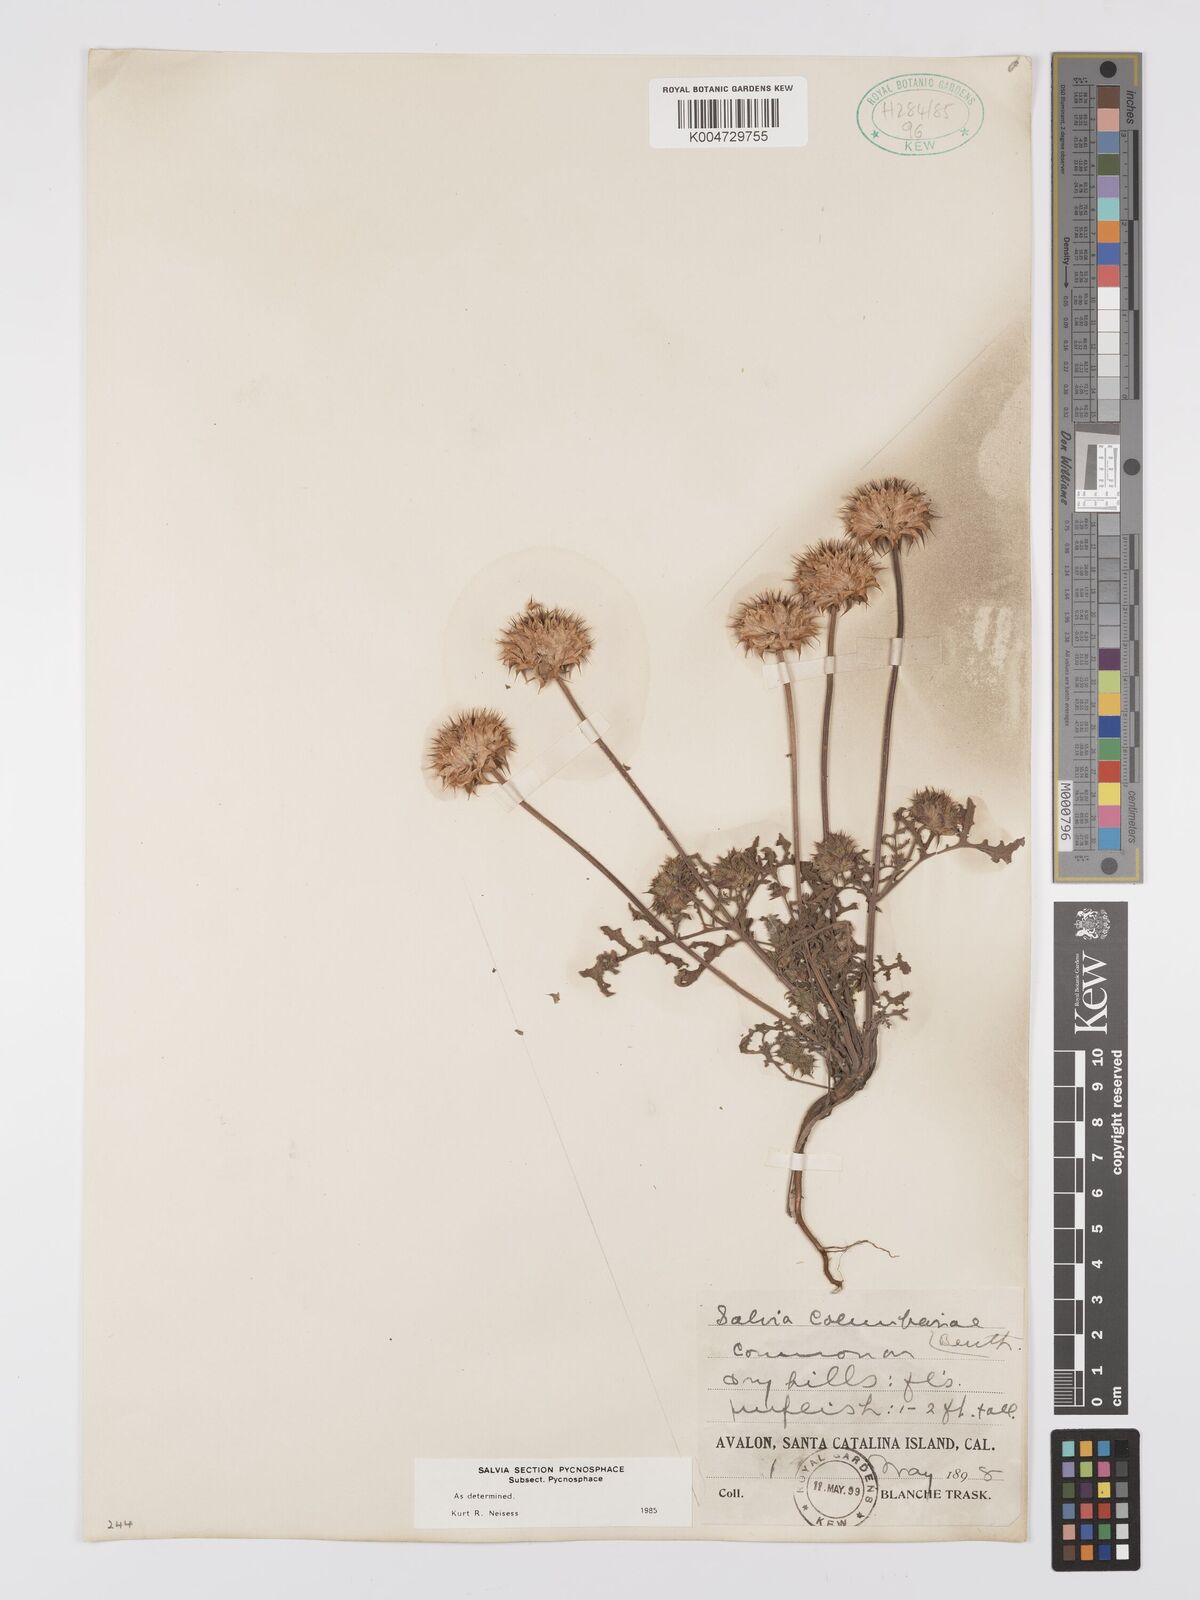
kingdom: Plantae
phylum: Tracheophyta
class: Magnoliopsida
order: Lamiales
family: Lamiaceae
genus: Salvia
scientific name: Salvia columbariae
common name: Chia
